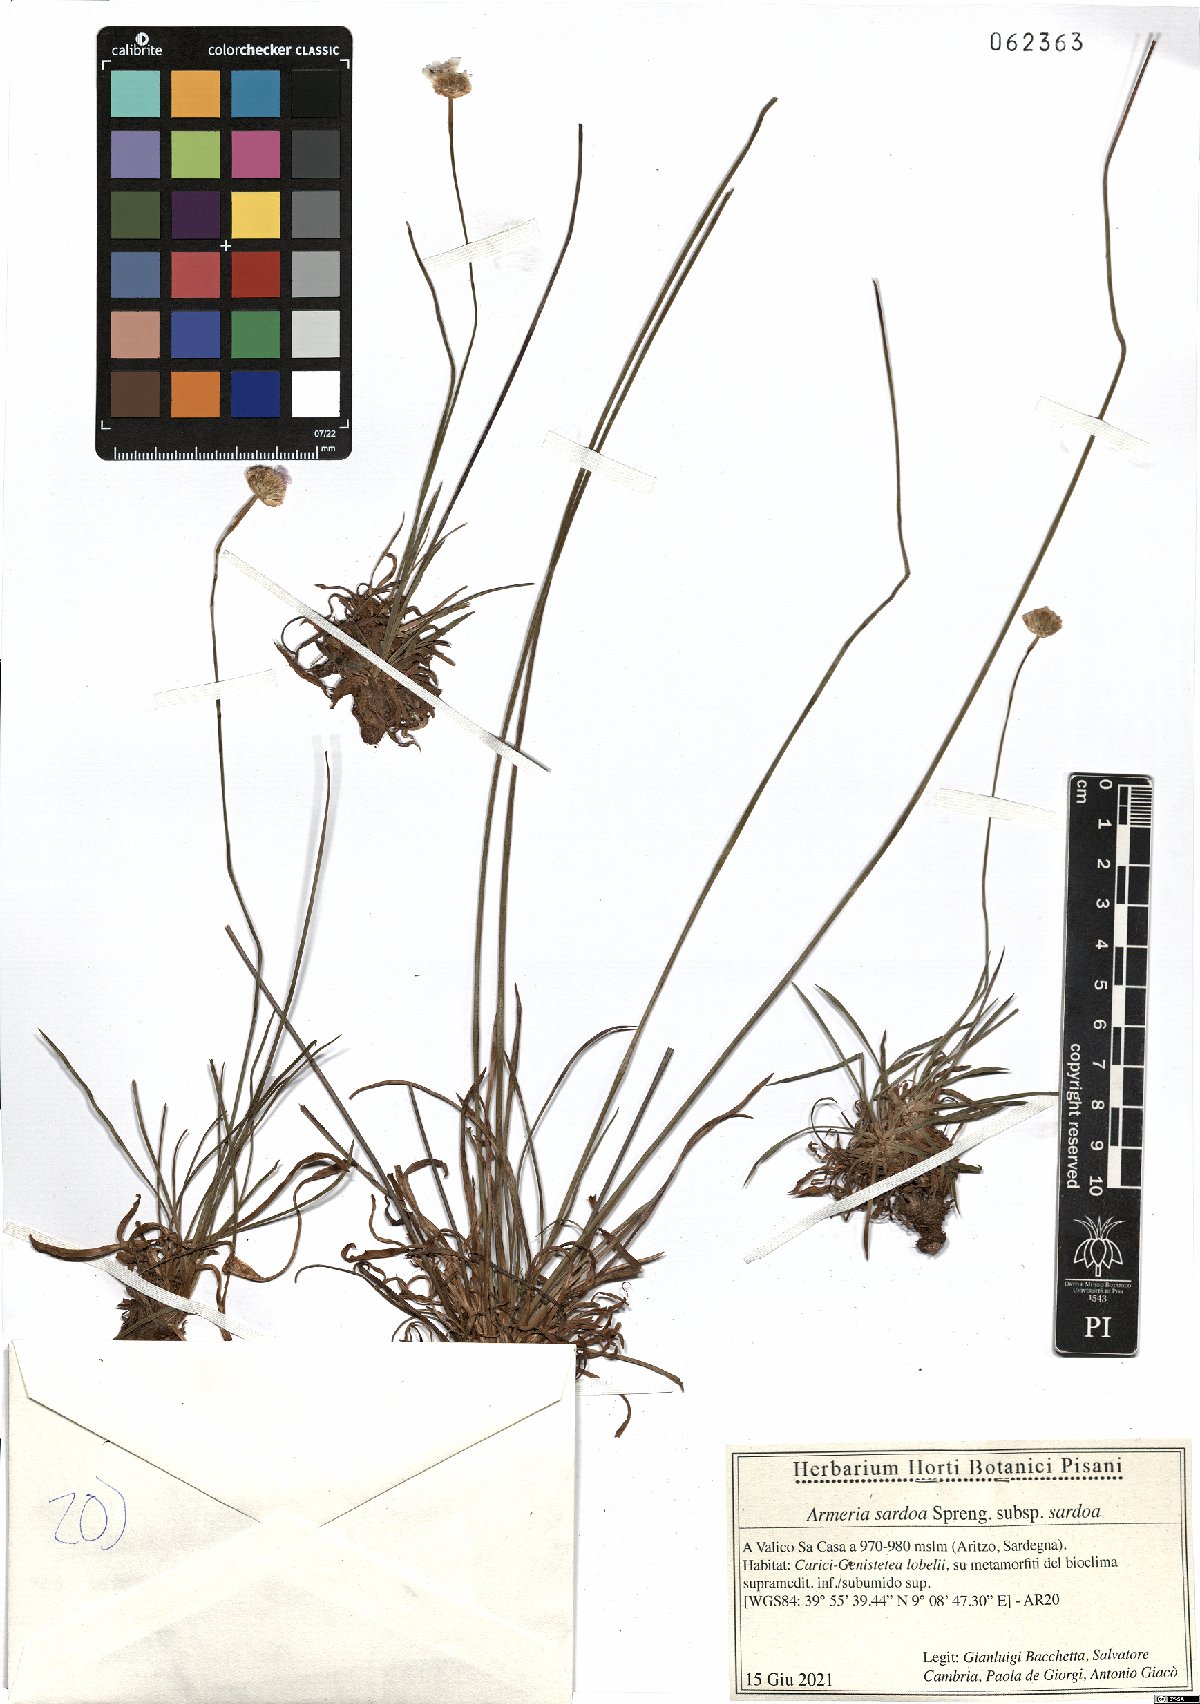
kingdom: Plantae
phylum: Tracheophyta
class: Magnoliopsida
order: Caryophyllales
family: Plumbaginaceae
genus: Armeria
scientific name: Armeria sardoa
